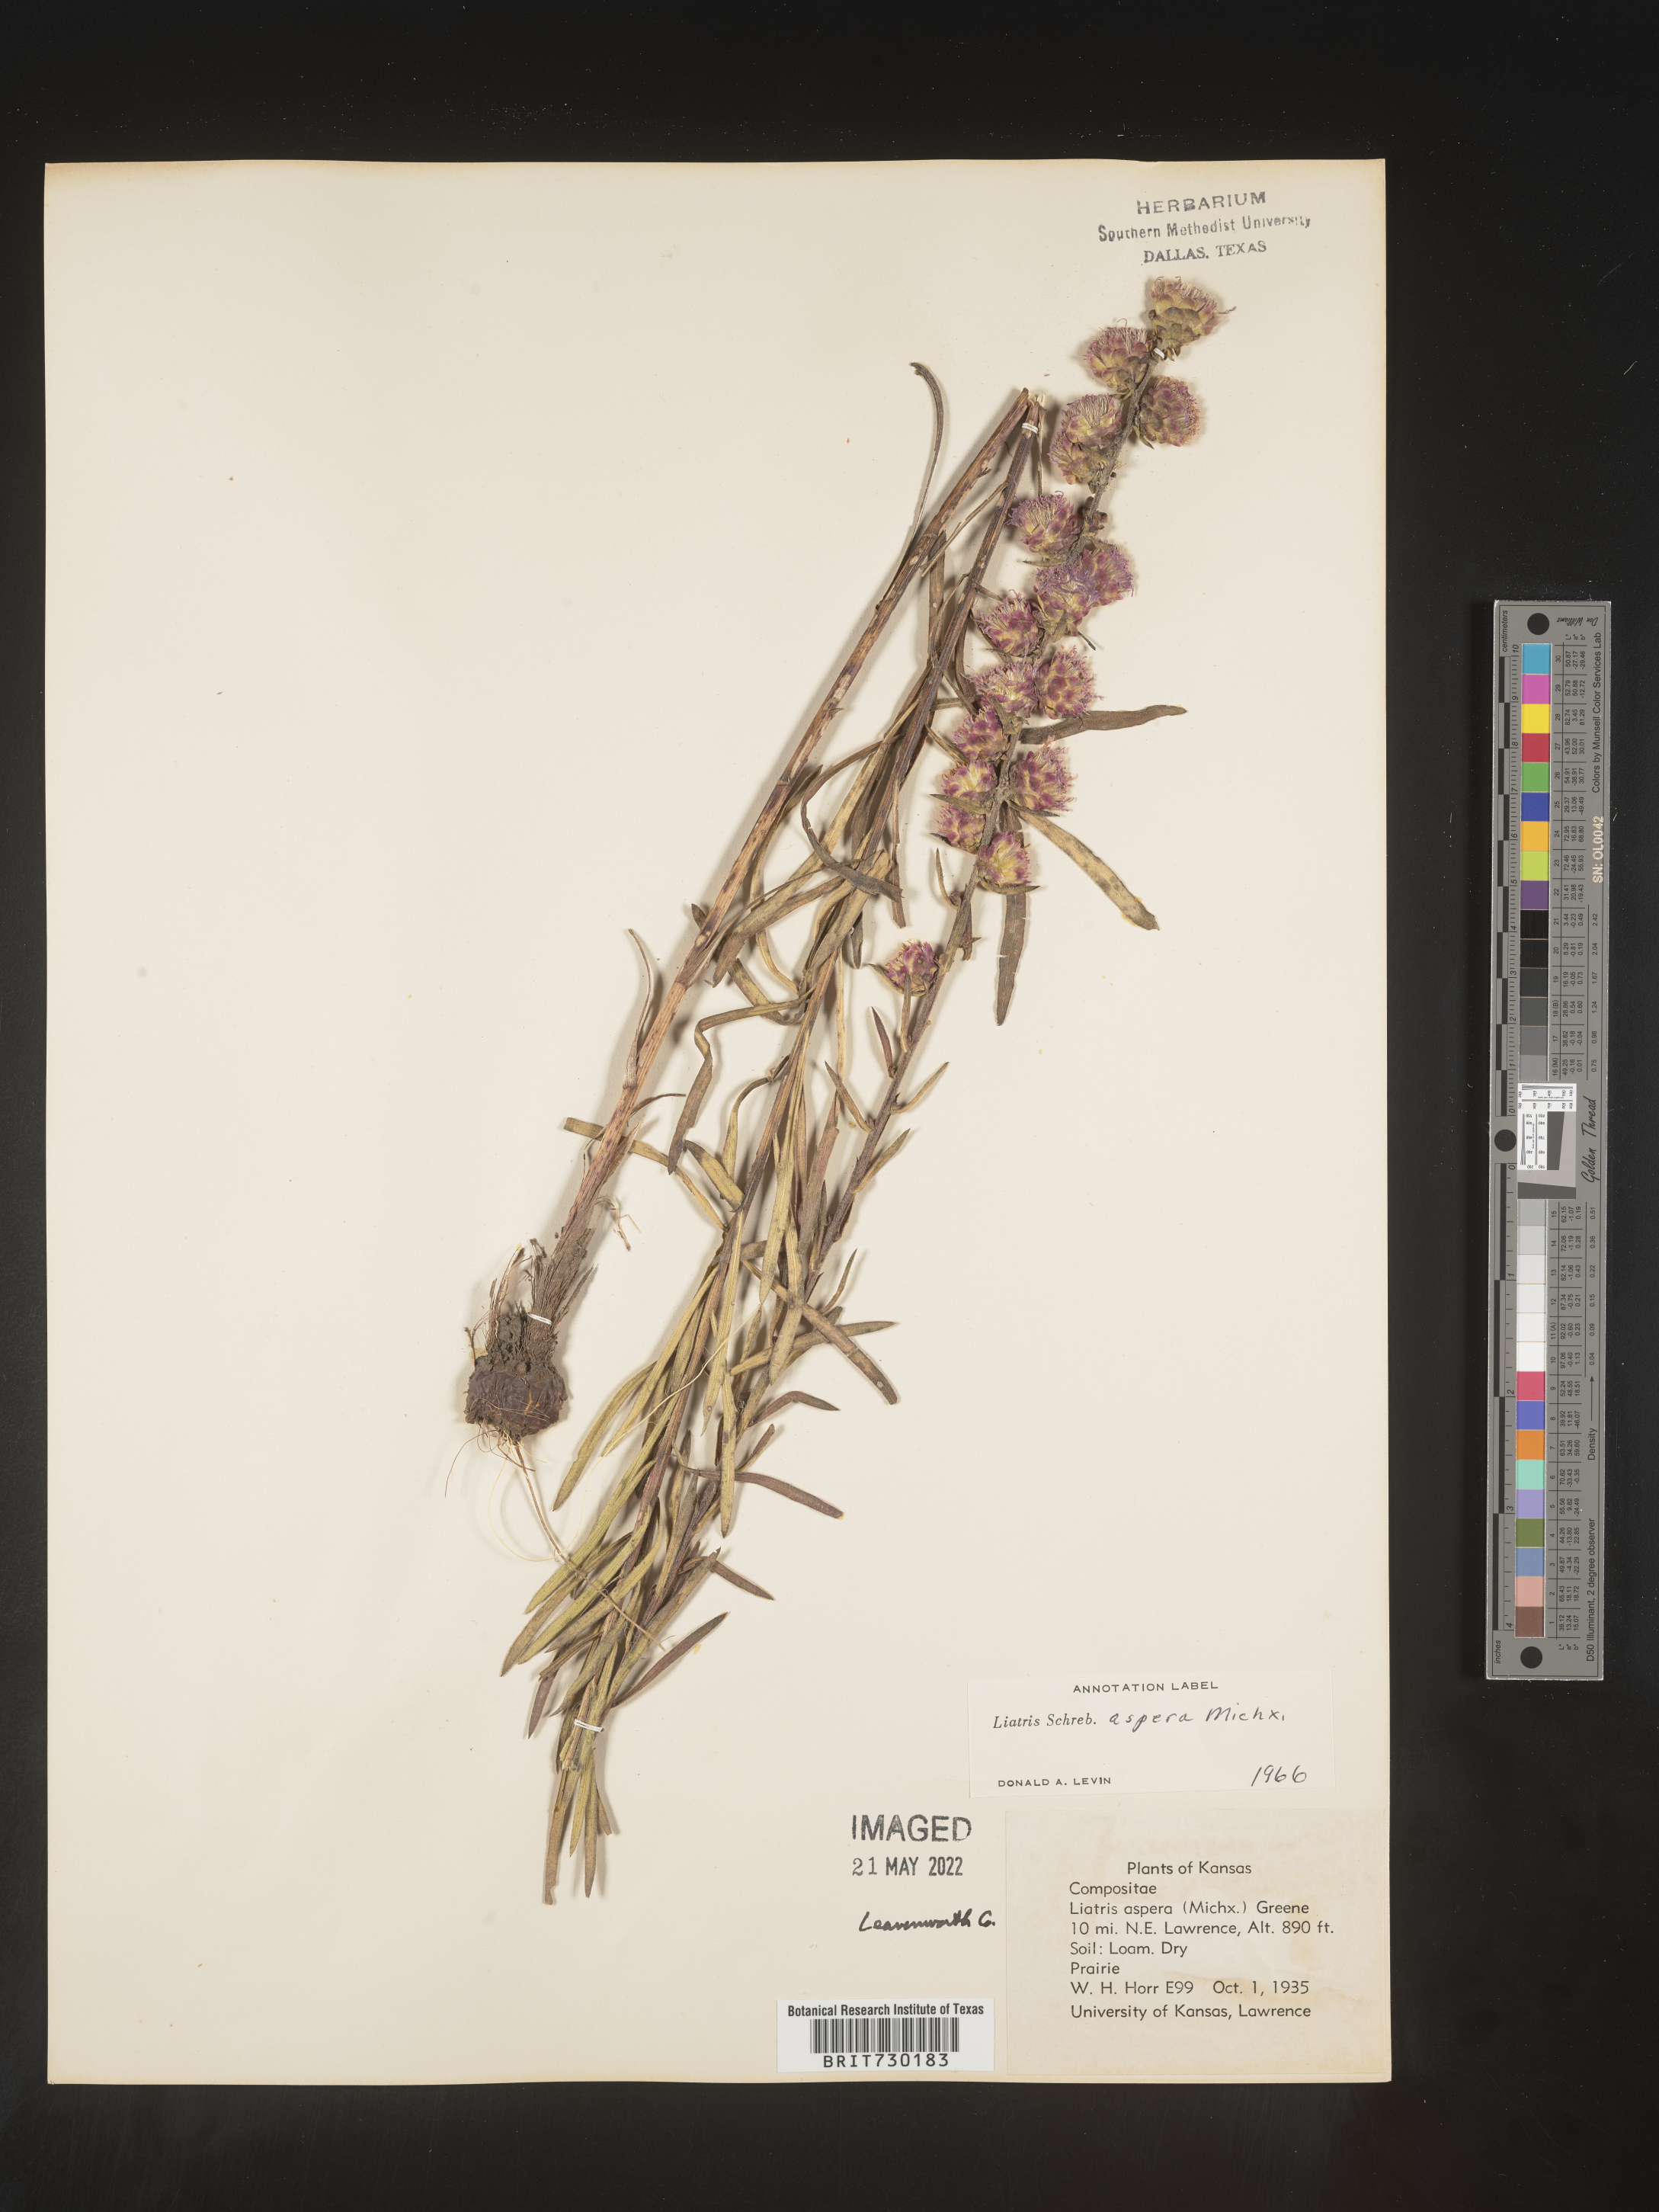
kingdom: Plantae
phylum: Tracheophyta
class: Magnoliopsida
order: Asterales
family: Asteraceae
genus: Liatris
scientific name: Liatris aspera
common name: Lacerate blazing-star
